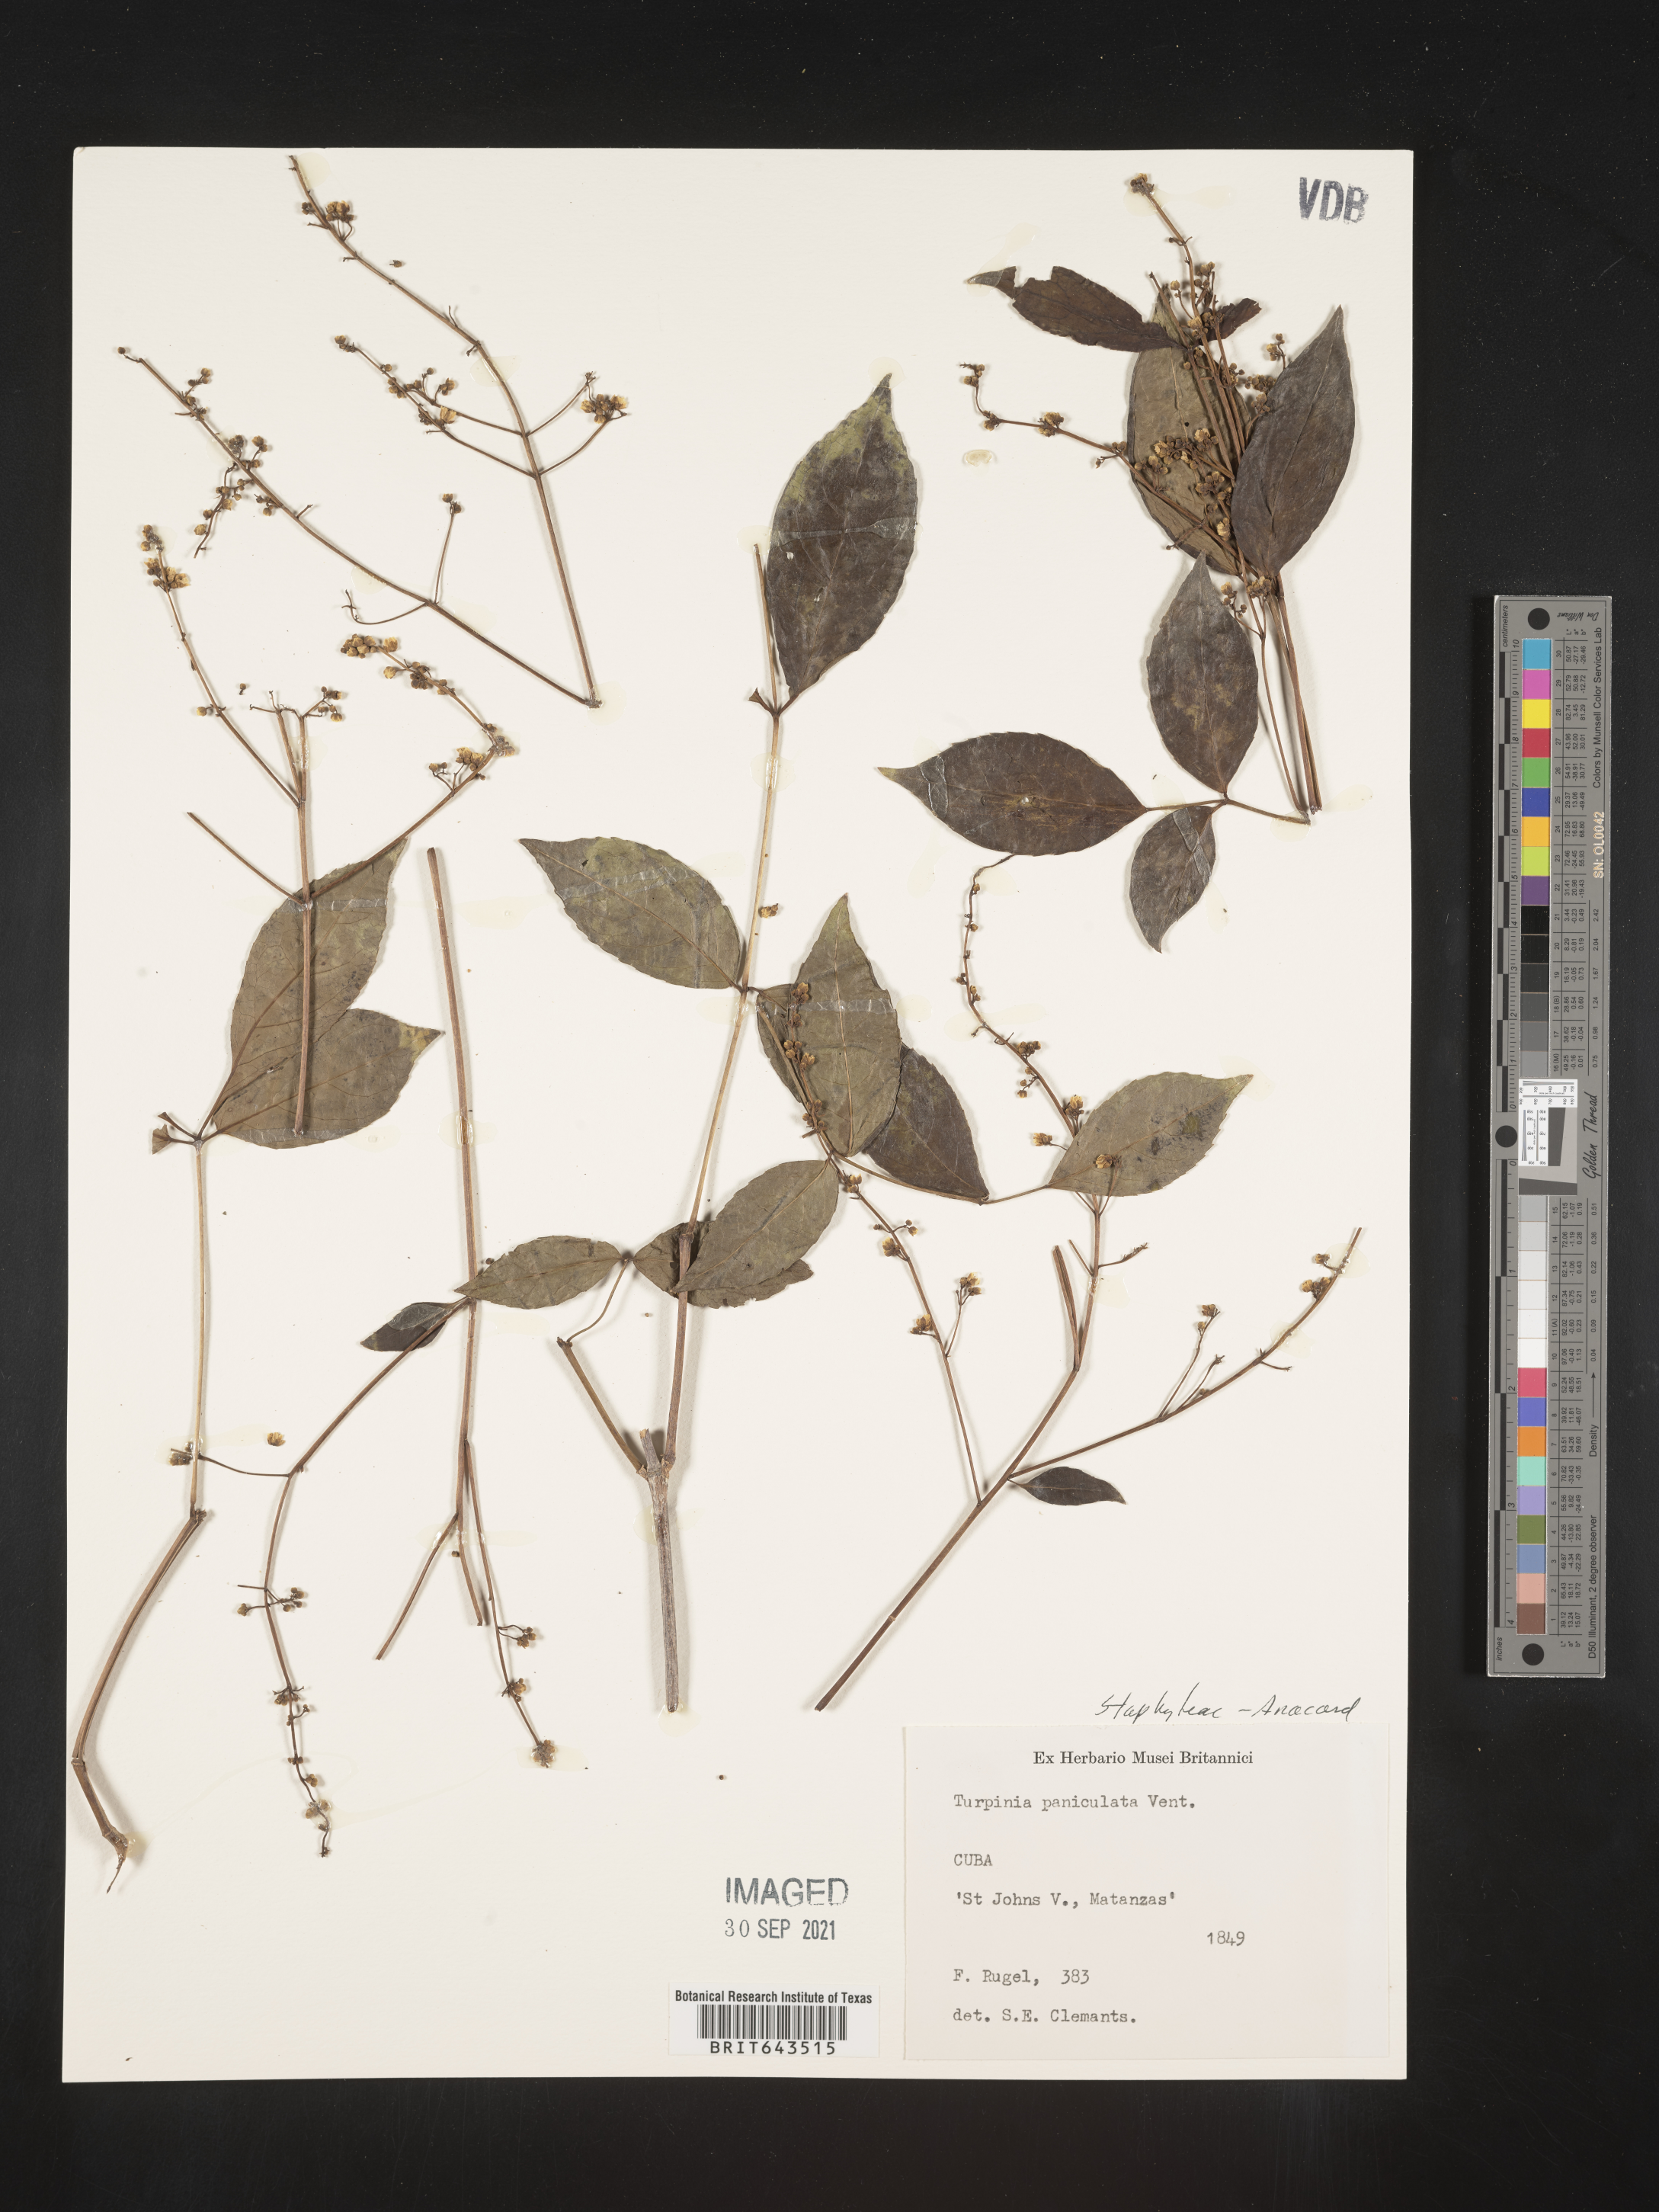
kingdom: Plantae
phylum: Tracheophyta
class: Magnoliopsida
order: Crossosomatales
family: Staphyleaceae
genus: Turpinia
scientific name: Turpinia occidentalis
